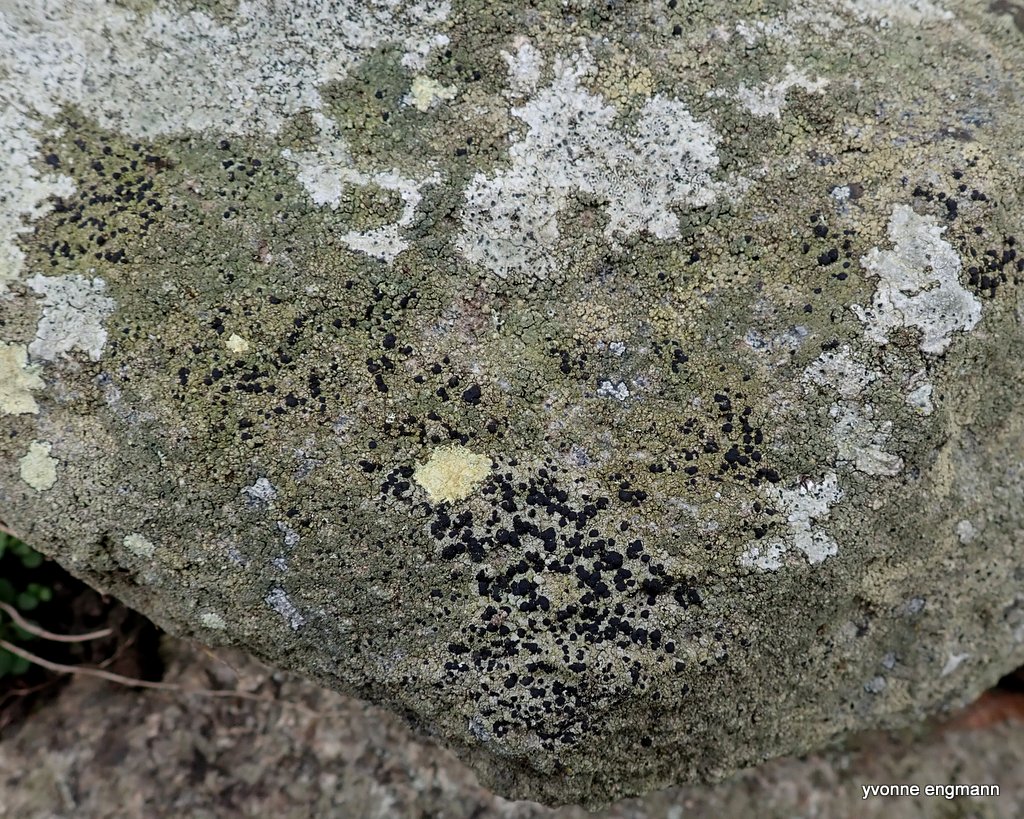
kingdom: Fungi
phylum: Ascomycota
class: Lecanoromycetes
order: Lecanorales
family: Lecanoraceae
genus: Lecidella
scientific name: Lecidella scabra
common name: skurvet skivelav
